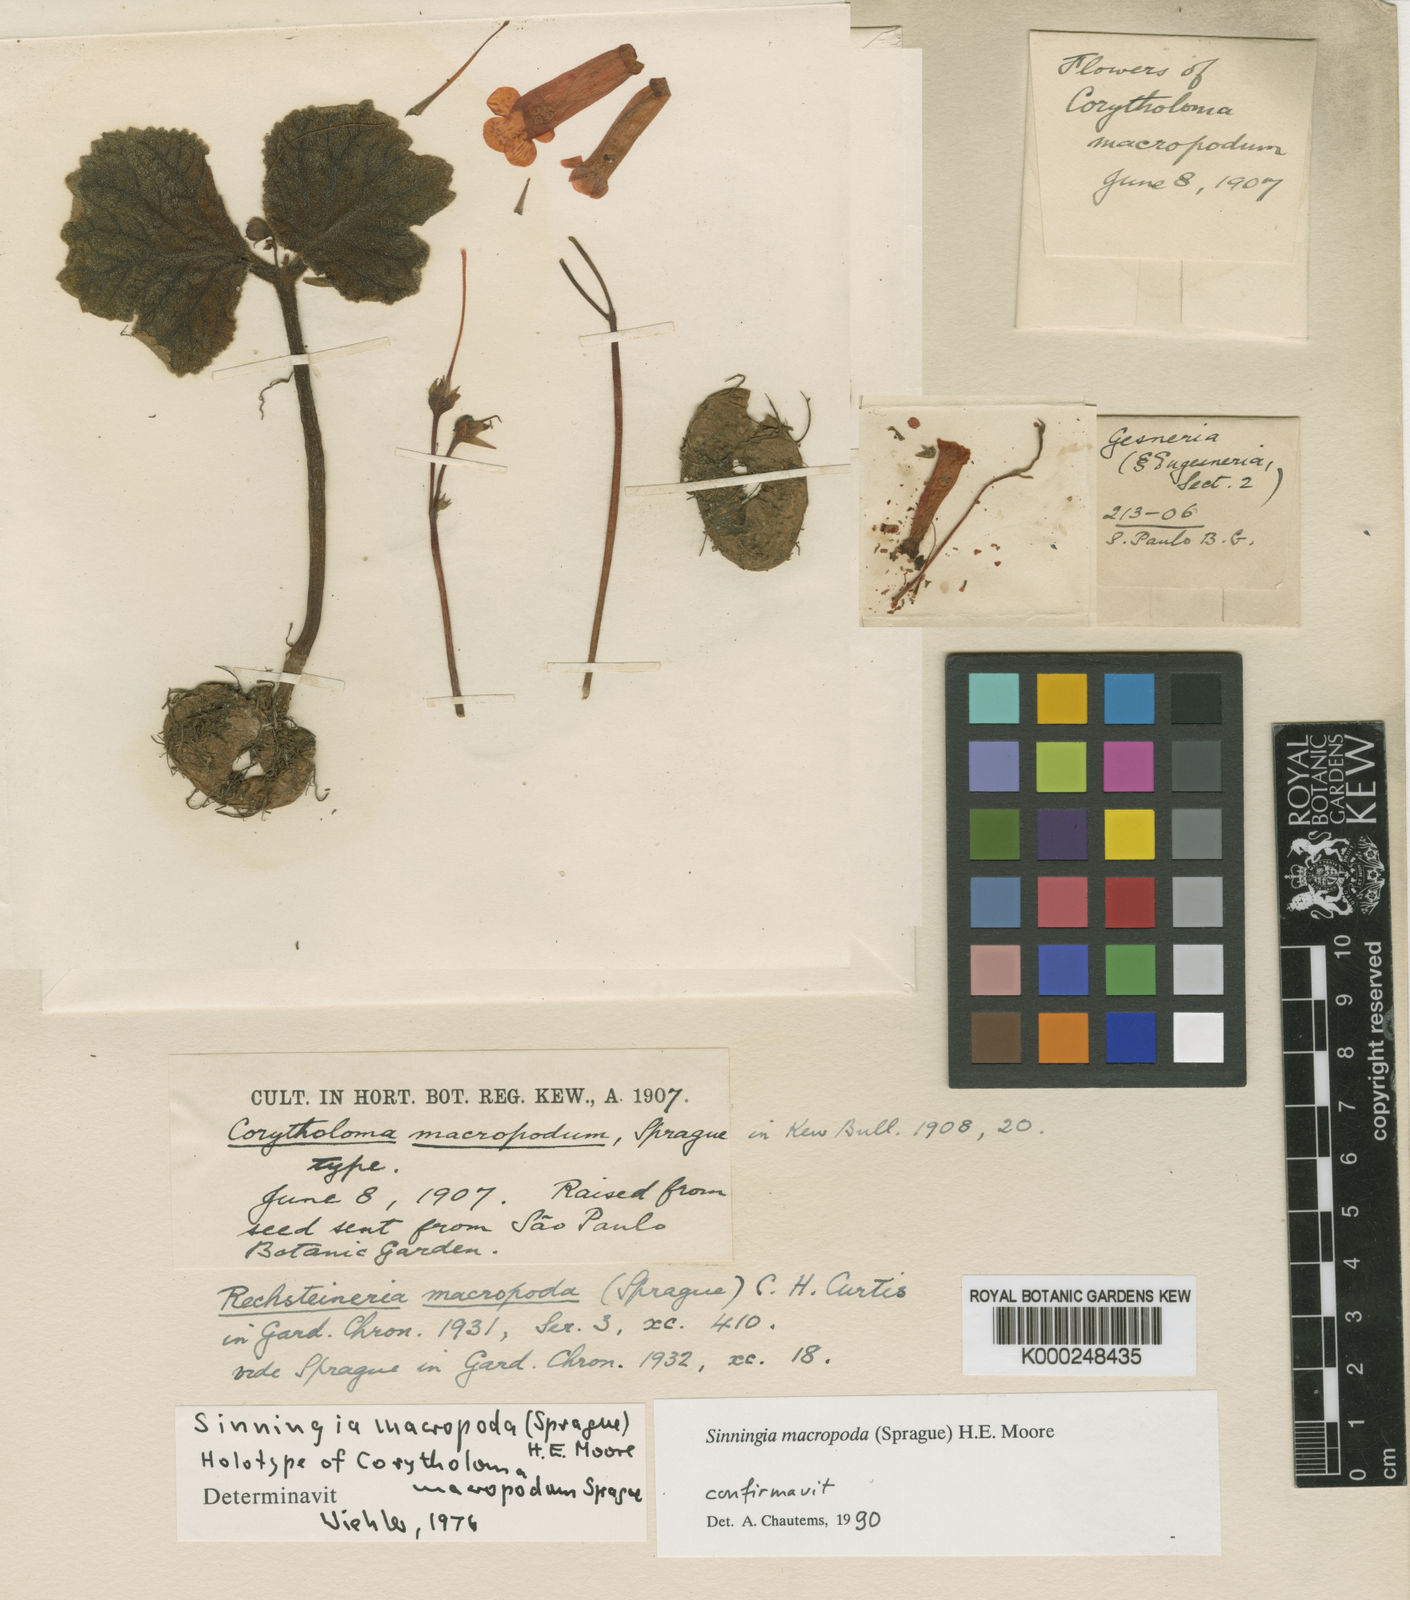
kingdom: Plantae
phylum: Tracheophyta
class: Magnoliopsida
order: Lamiales
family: Gesneriaceae
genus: Sinningia
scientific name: Sinningia macropoda
